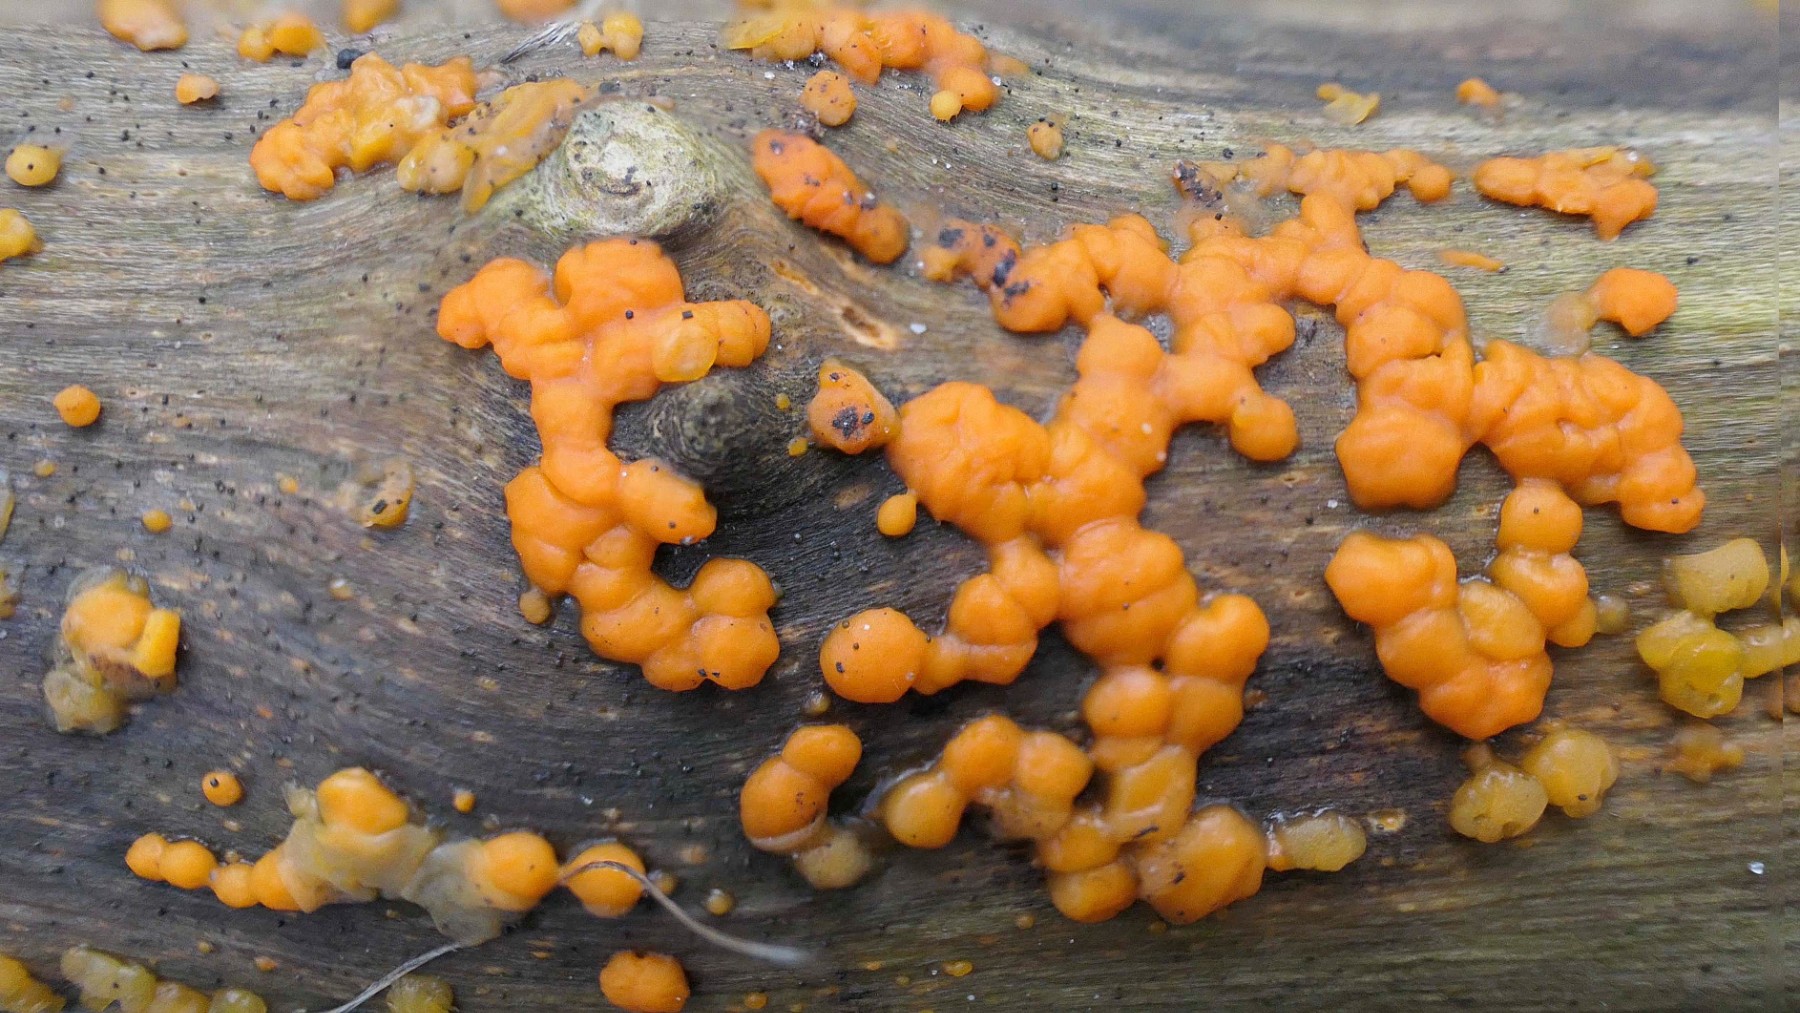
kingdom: Fungi
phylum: Basidiomycota
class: Dacrymycetes
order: Dacrymycetales
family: Dacrymycetaceae
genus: Dacrymyces
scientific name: Dacrymyces stillatus
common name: almindelig tåresvamp
